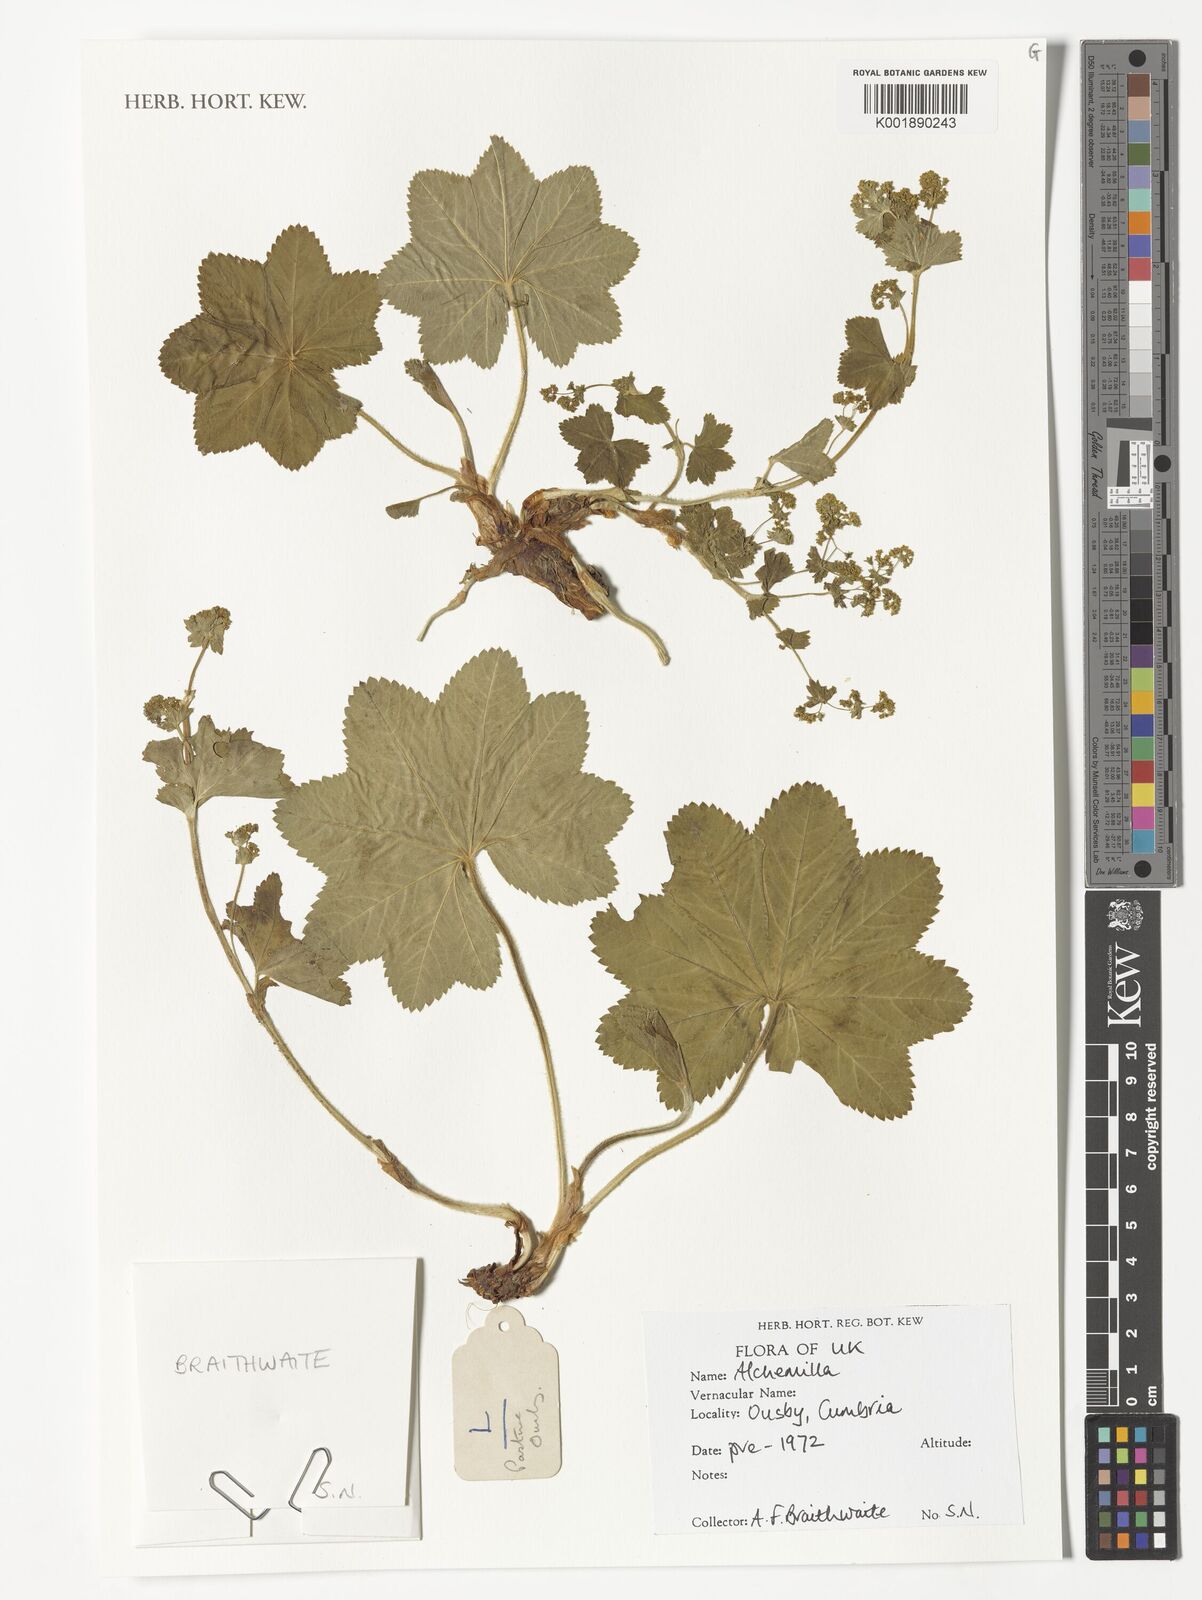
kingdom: Plantae
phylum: Tracheophyta
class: Magnoliopsida
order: Rosales
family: Rosaceae
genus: Alchemilla
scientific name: Alchemilla
